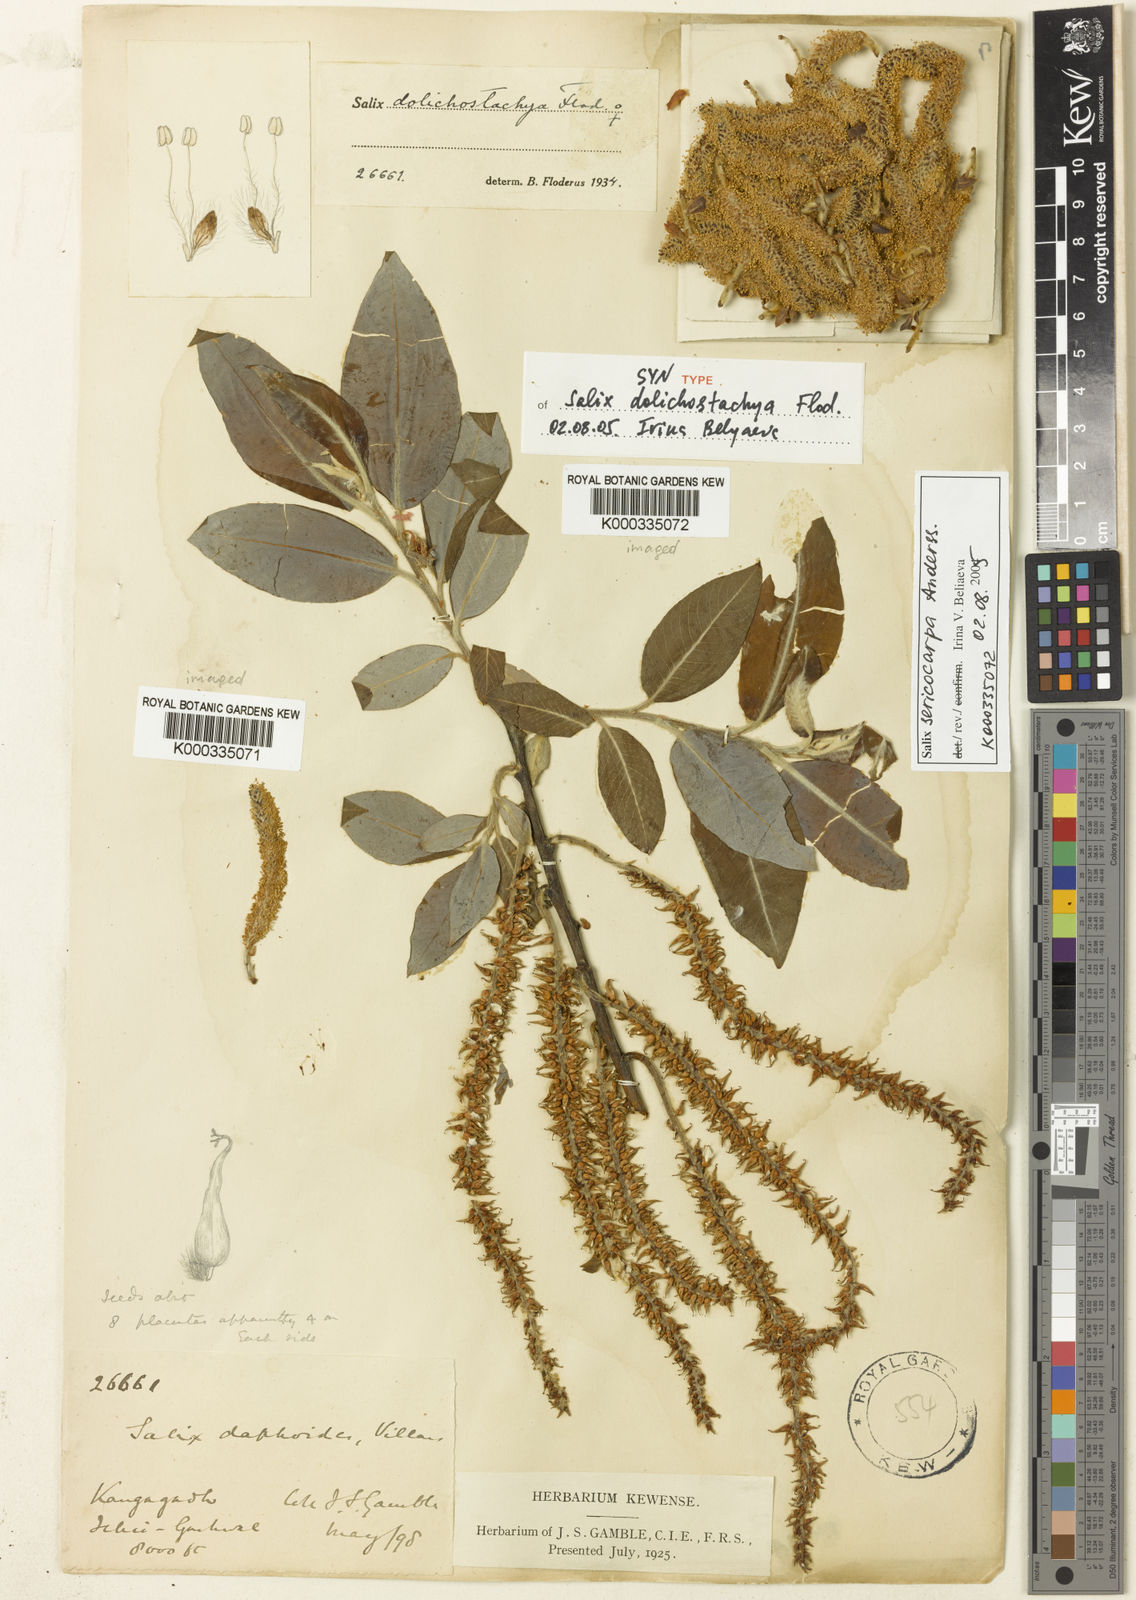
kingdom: Plantae
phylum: Tracheophyta
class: Magnoliopsida
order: Malpighiales
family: Salicaceae
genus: Salix
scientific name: Salix dolichostachya
